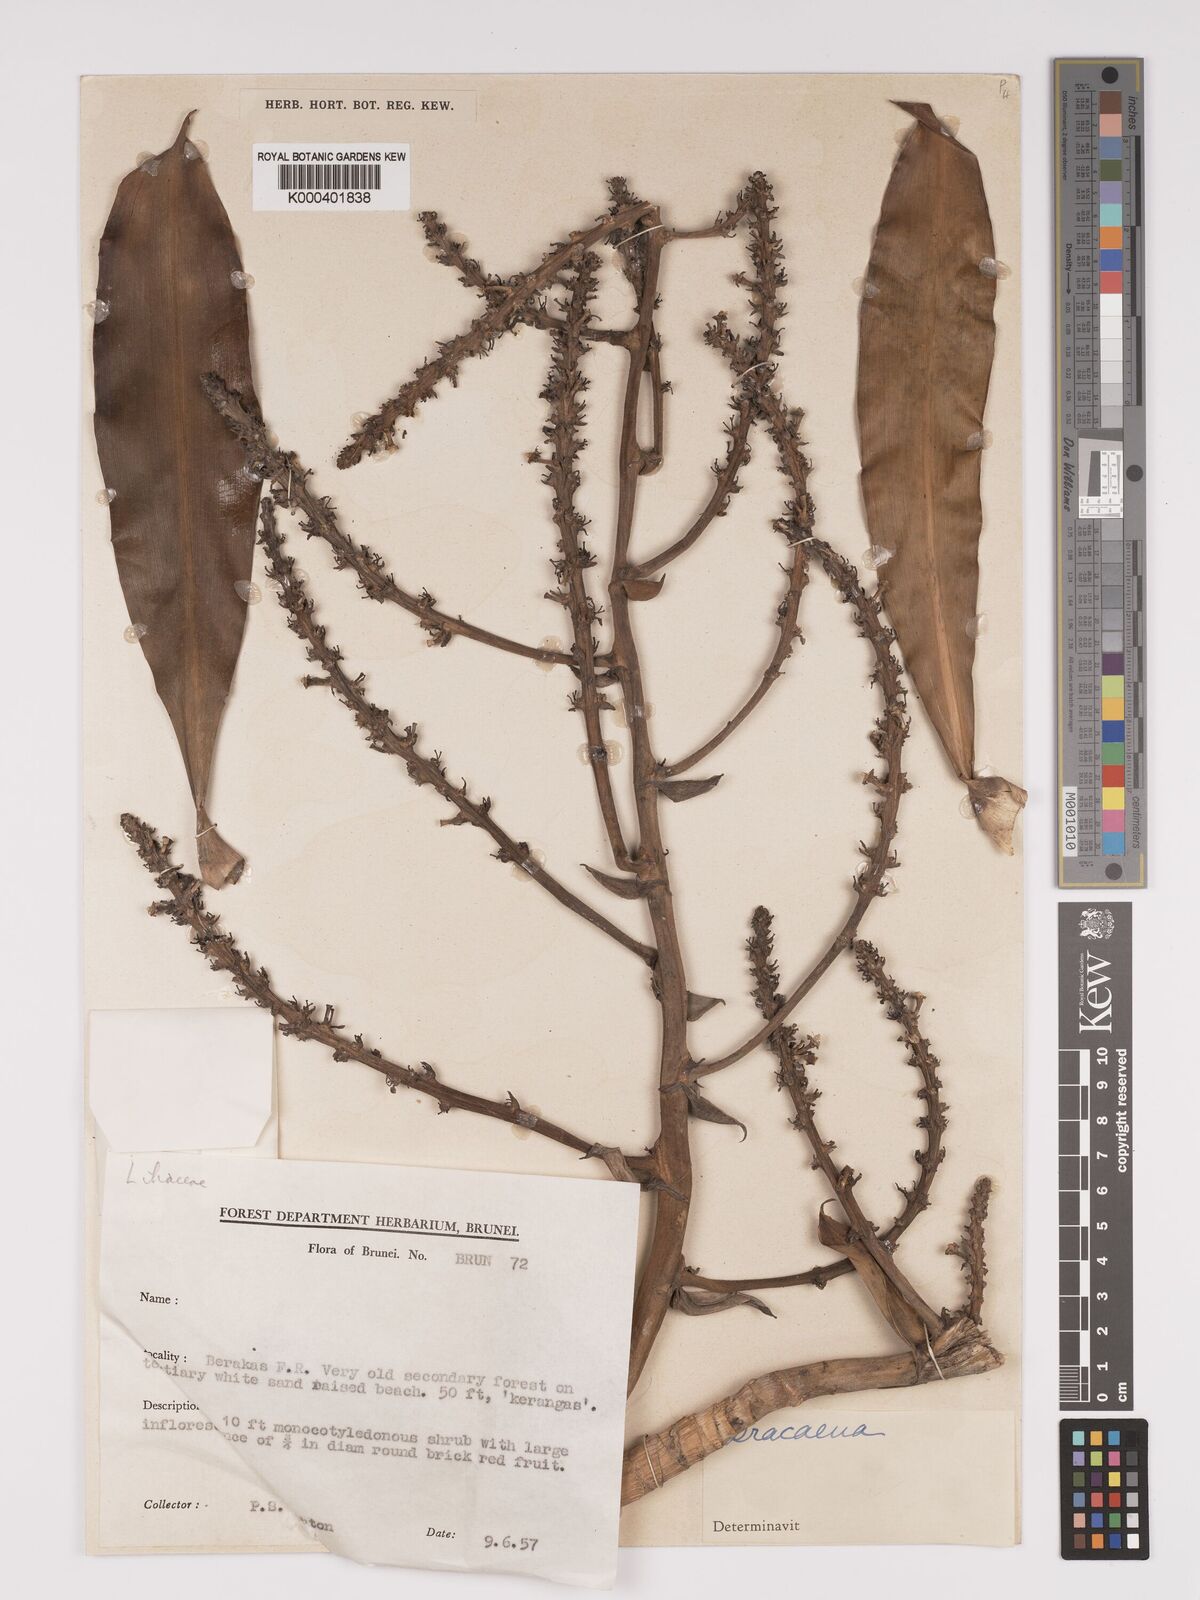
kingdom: Plantae
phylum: Tracheophyta
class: Liliopsida
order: Asparagales
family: Asparagaceae
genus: Dracaena
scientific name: Dracaena
